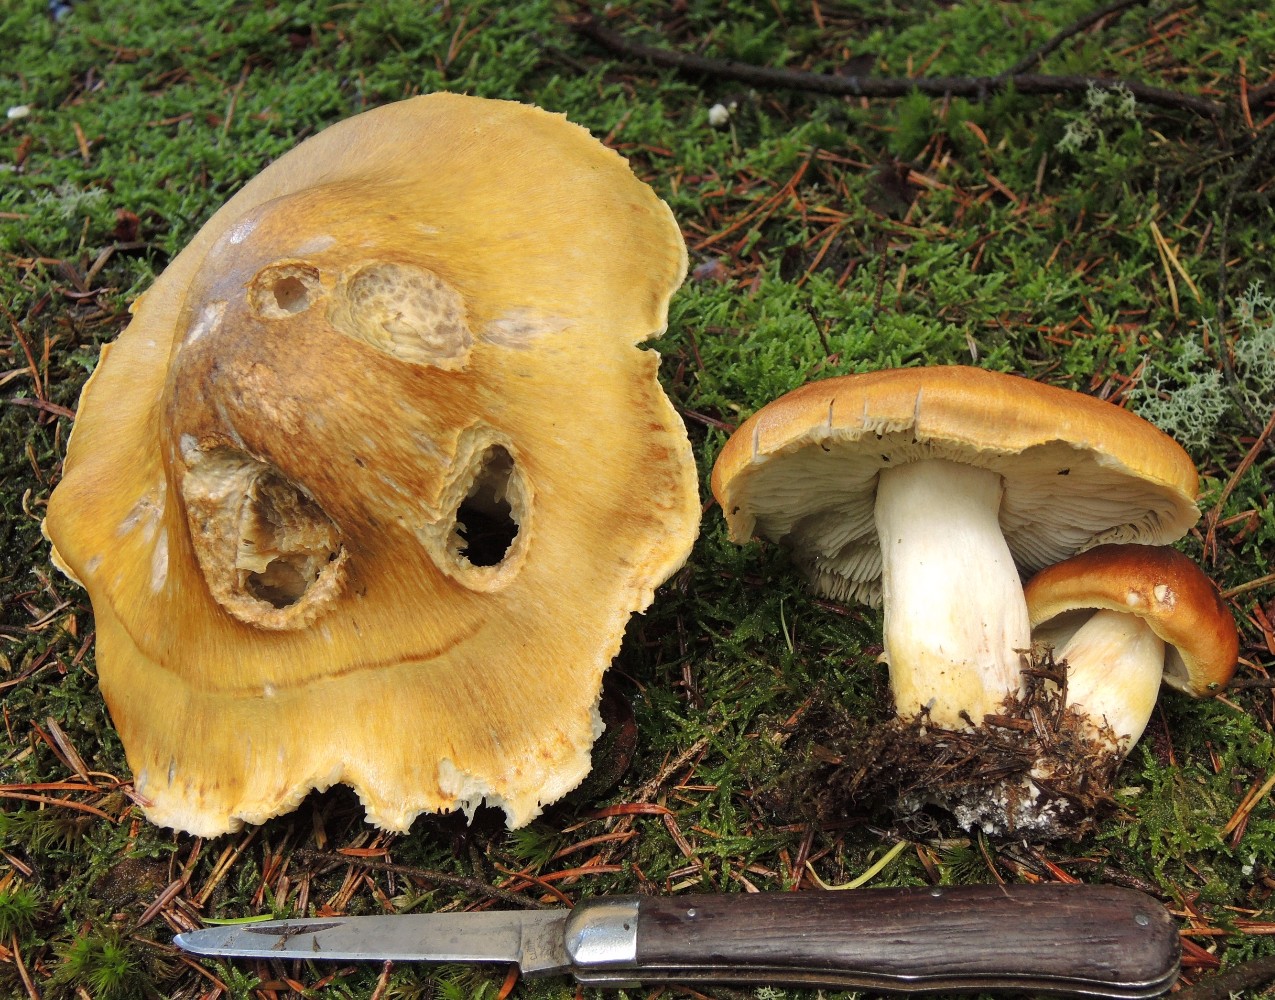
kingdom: Fungi
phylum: Basidiomycota
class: Agaricomycetes
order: Agaricales
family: Tricholomataceae
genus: Tricholoma
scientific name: Tricholoma arvernense
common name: kantet ridderhat
